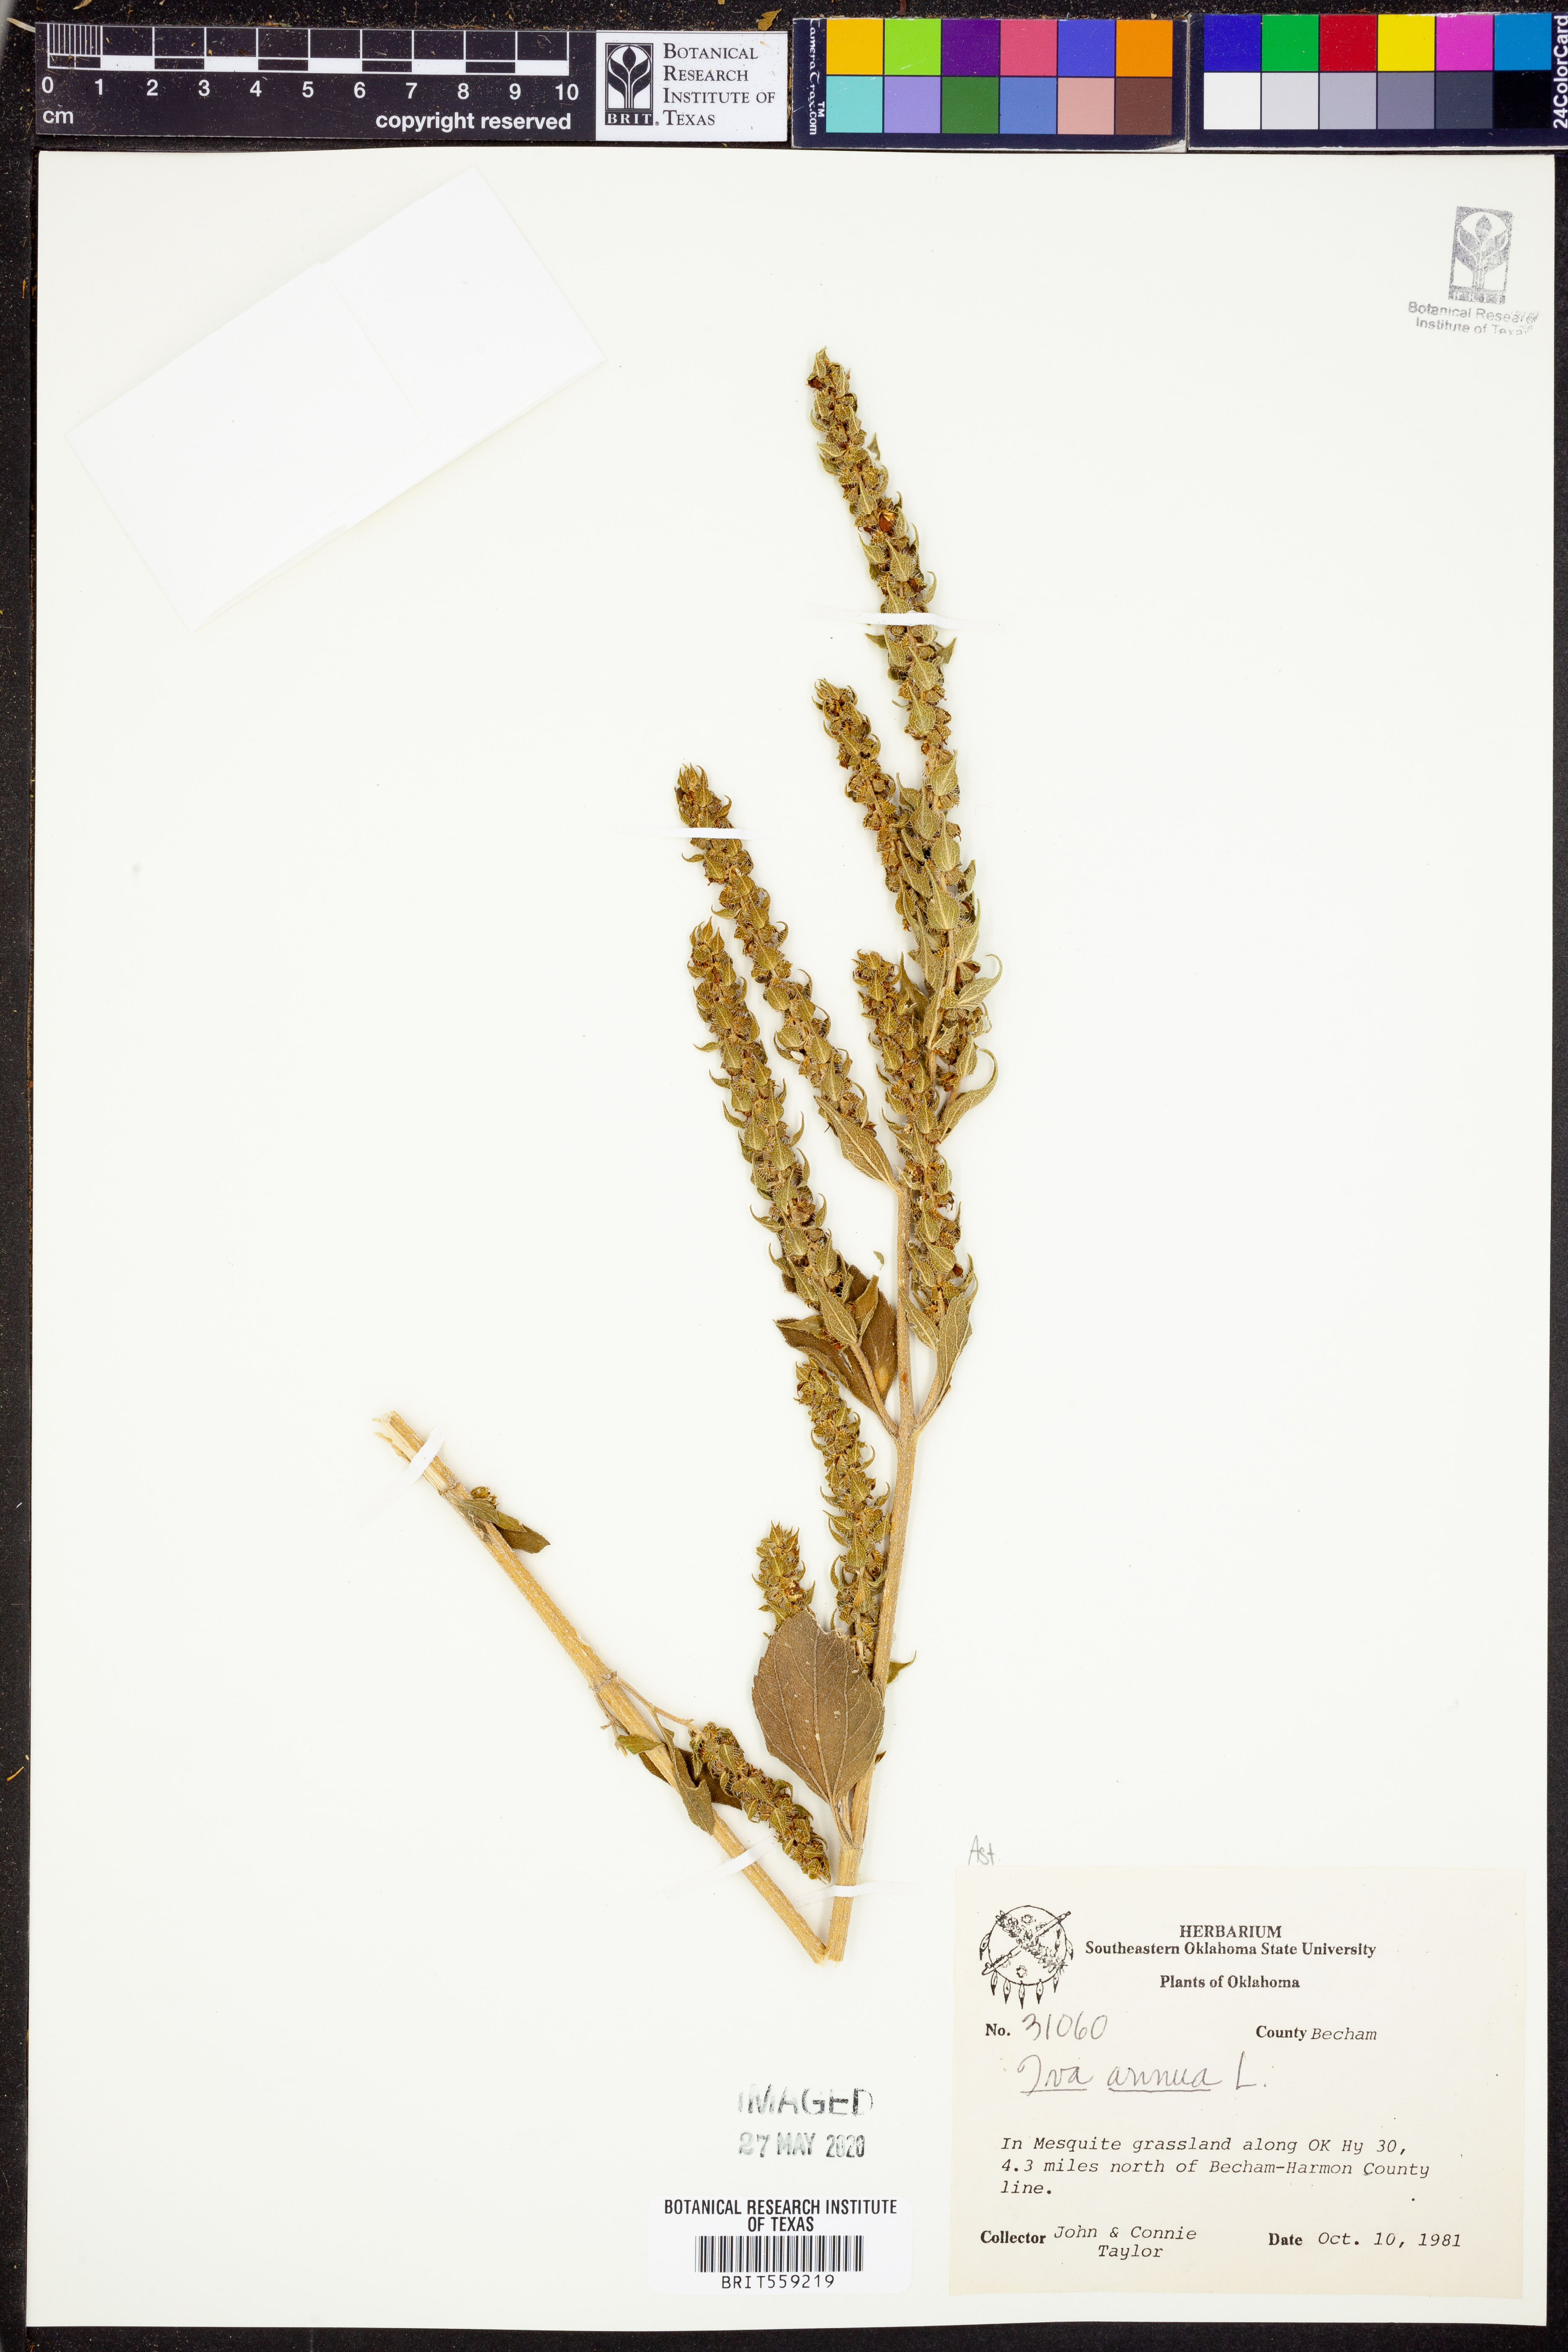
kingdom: Plantae
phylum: Tracheophyta
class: Magnoliopsida
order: Asterales
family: Asteraceae
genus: Iva
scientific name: Iva annua
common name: Marsh-elder
